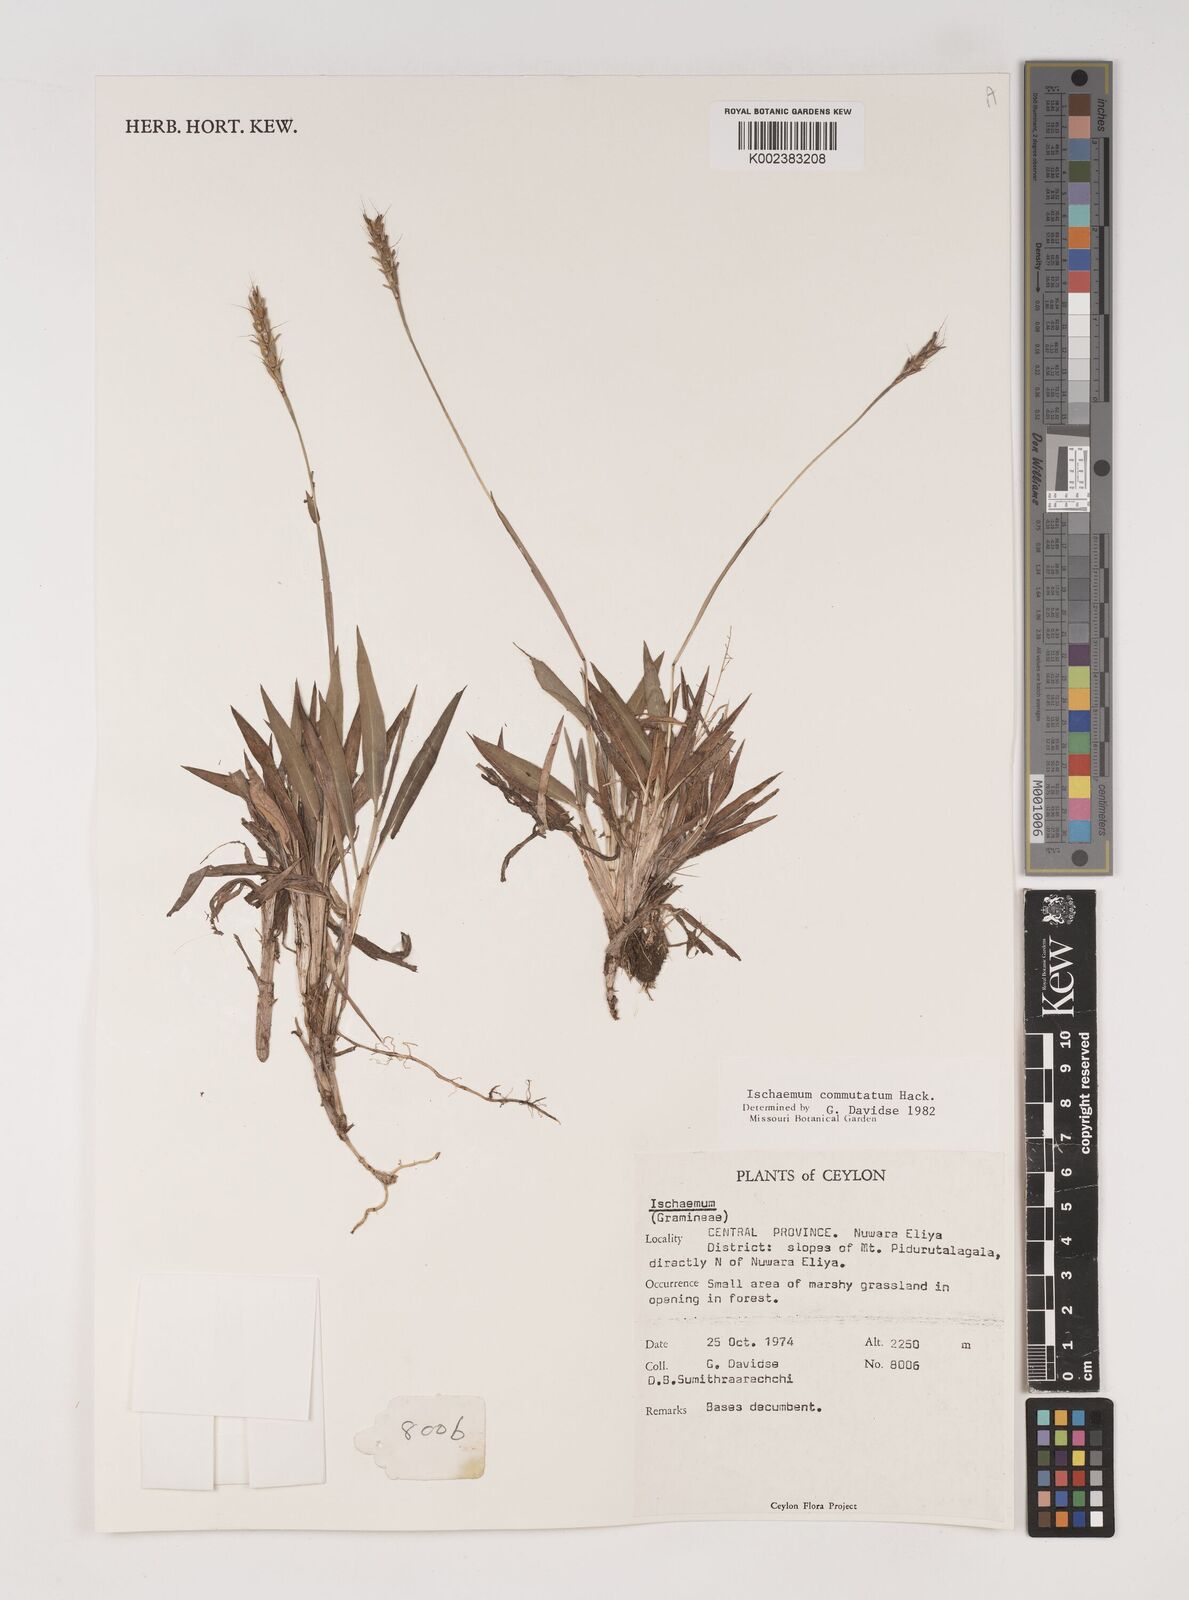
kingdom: Plantae
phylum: Tracheophyta
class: Liliopsida
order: Poales
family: Poaceae
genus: Ischaemum
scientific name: Ischaemum commutatum
